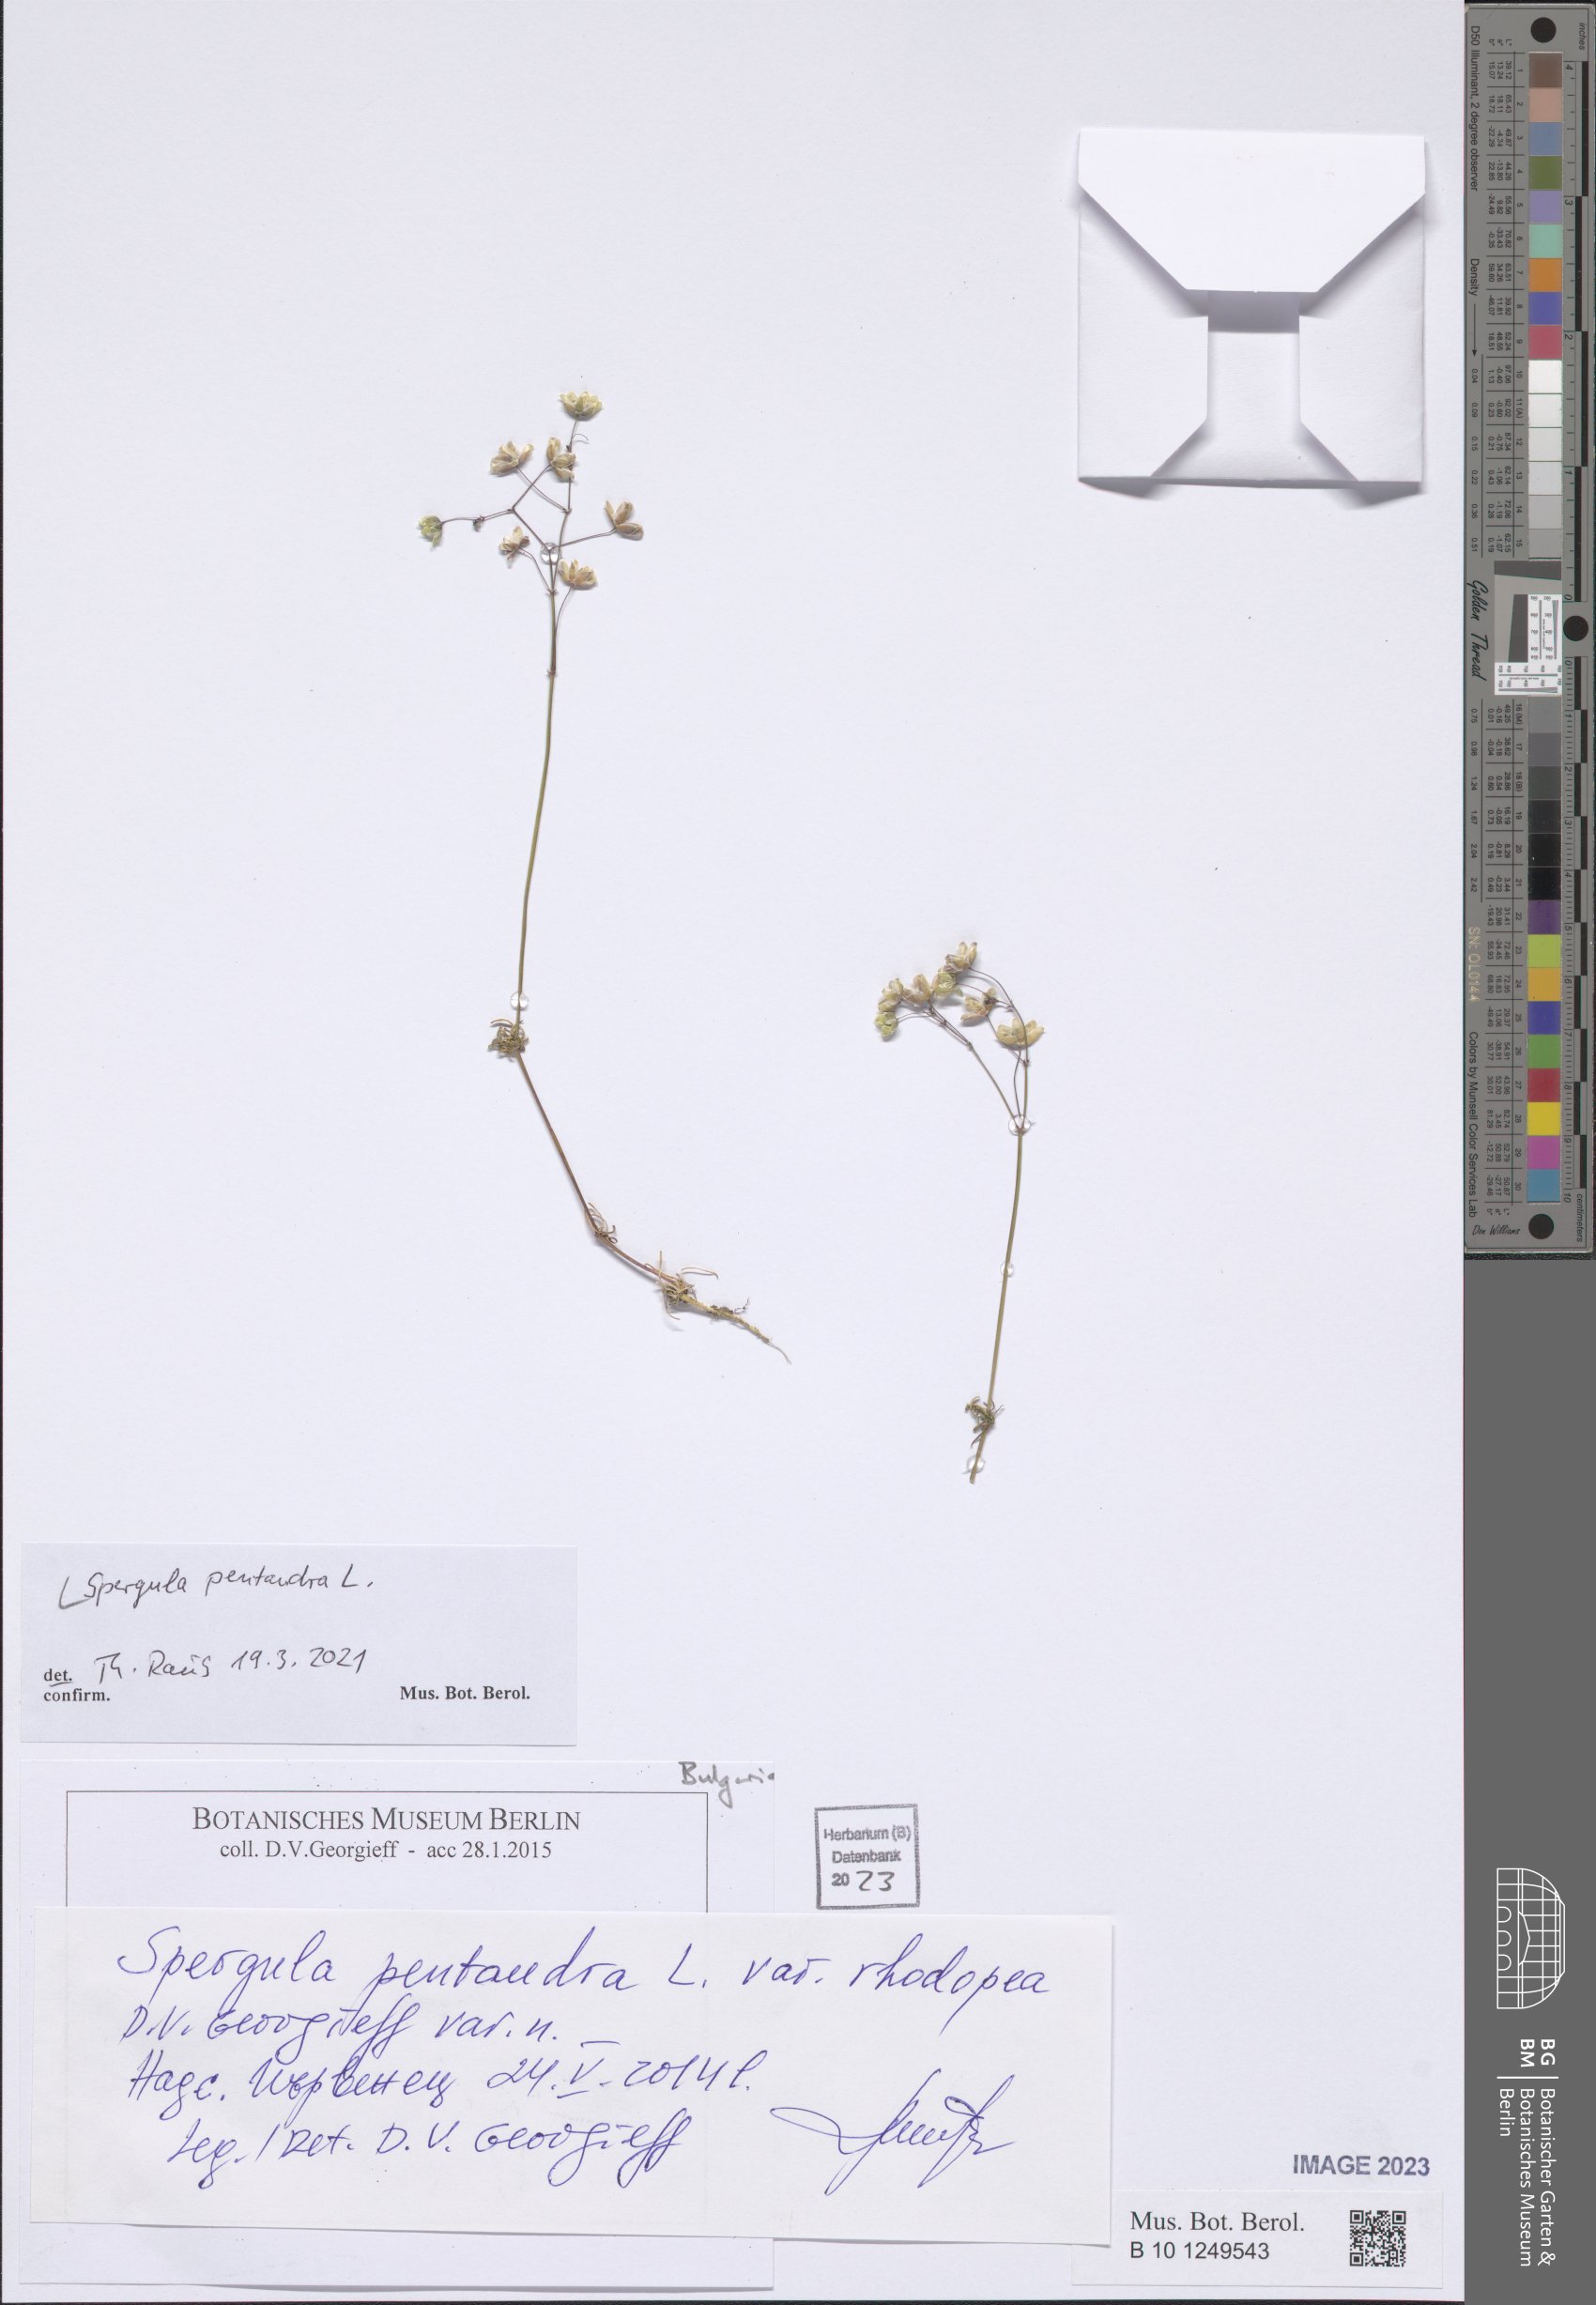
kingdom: Plantae
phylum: Tracheophyta
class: Magnoliopsida
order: Caryophyllales
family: Caryophyllaceae
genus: Spergula
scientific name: Spergula pentandra
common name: Wingstem spurry
